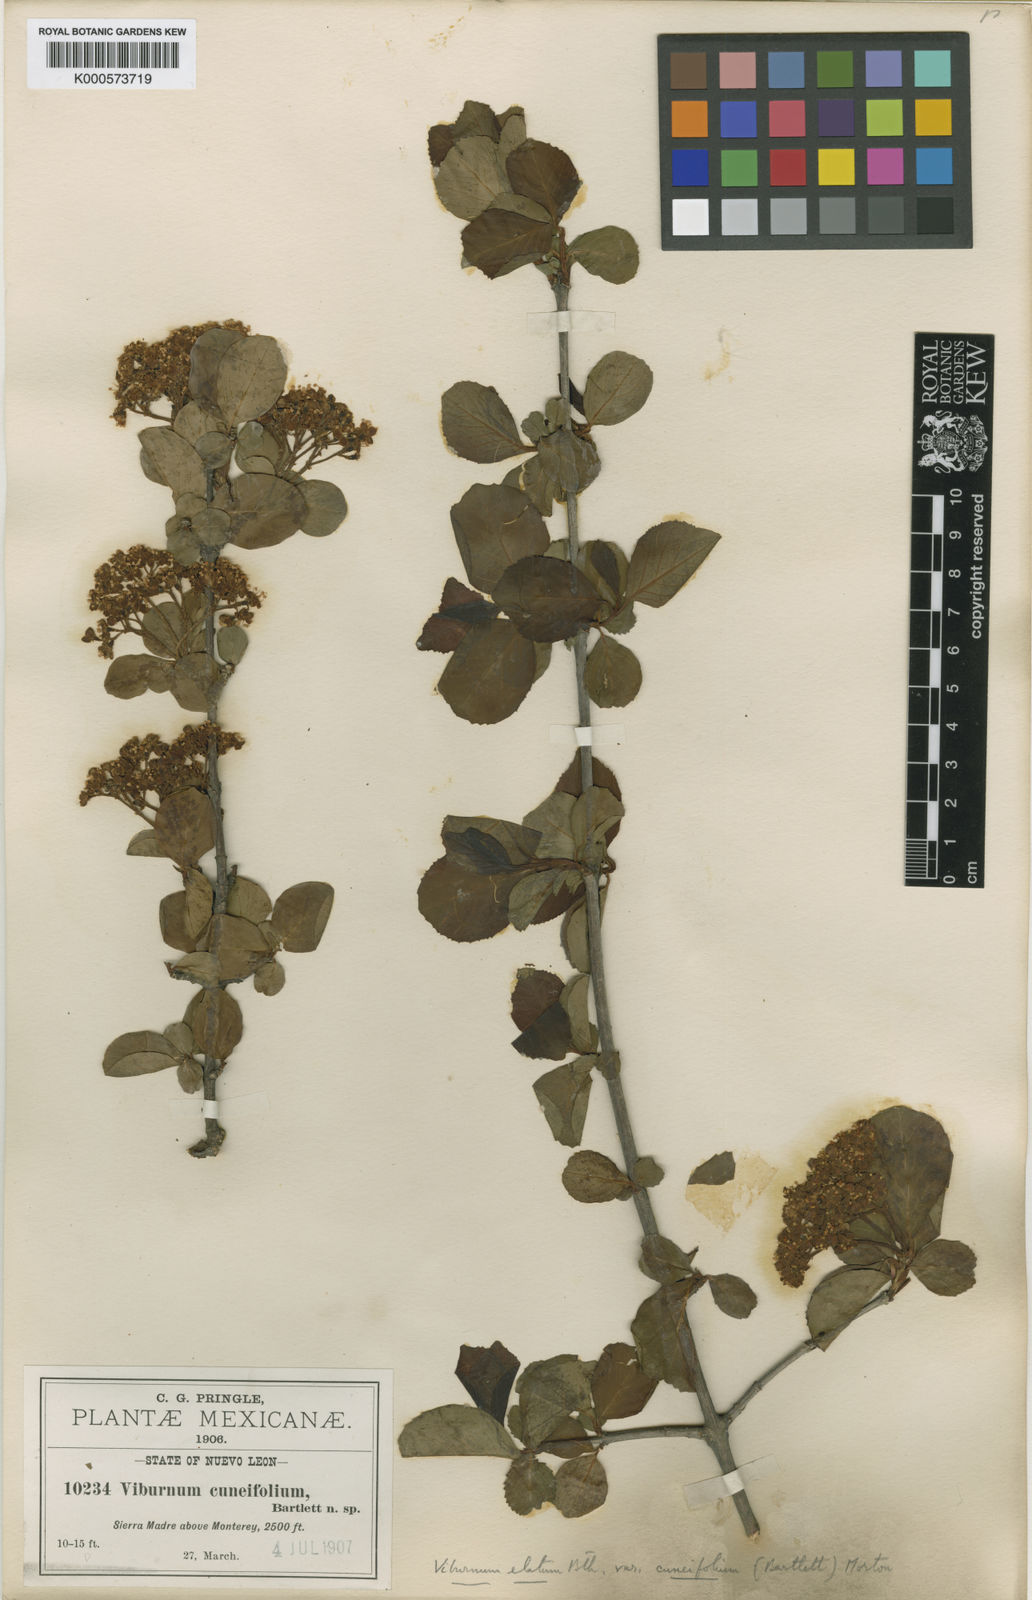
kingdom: Plantae
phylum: Tracheophyta
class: Magnoliopsida
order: Dipsacales
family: Viburnaceae
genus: Viburnum
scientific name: Viburnum elatum
